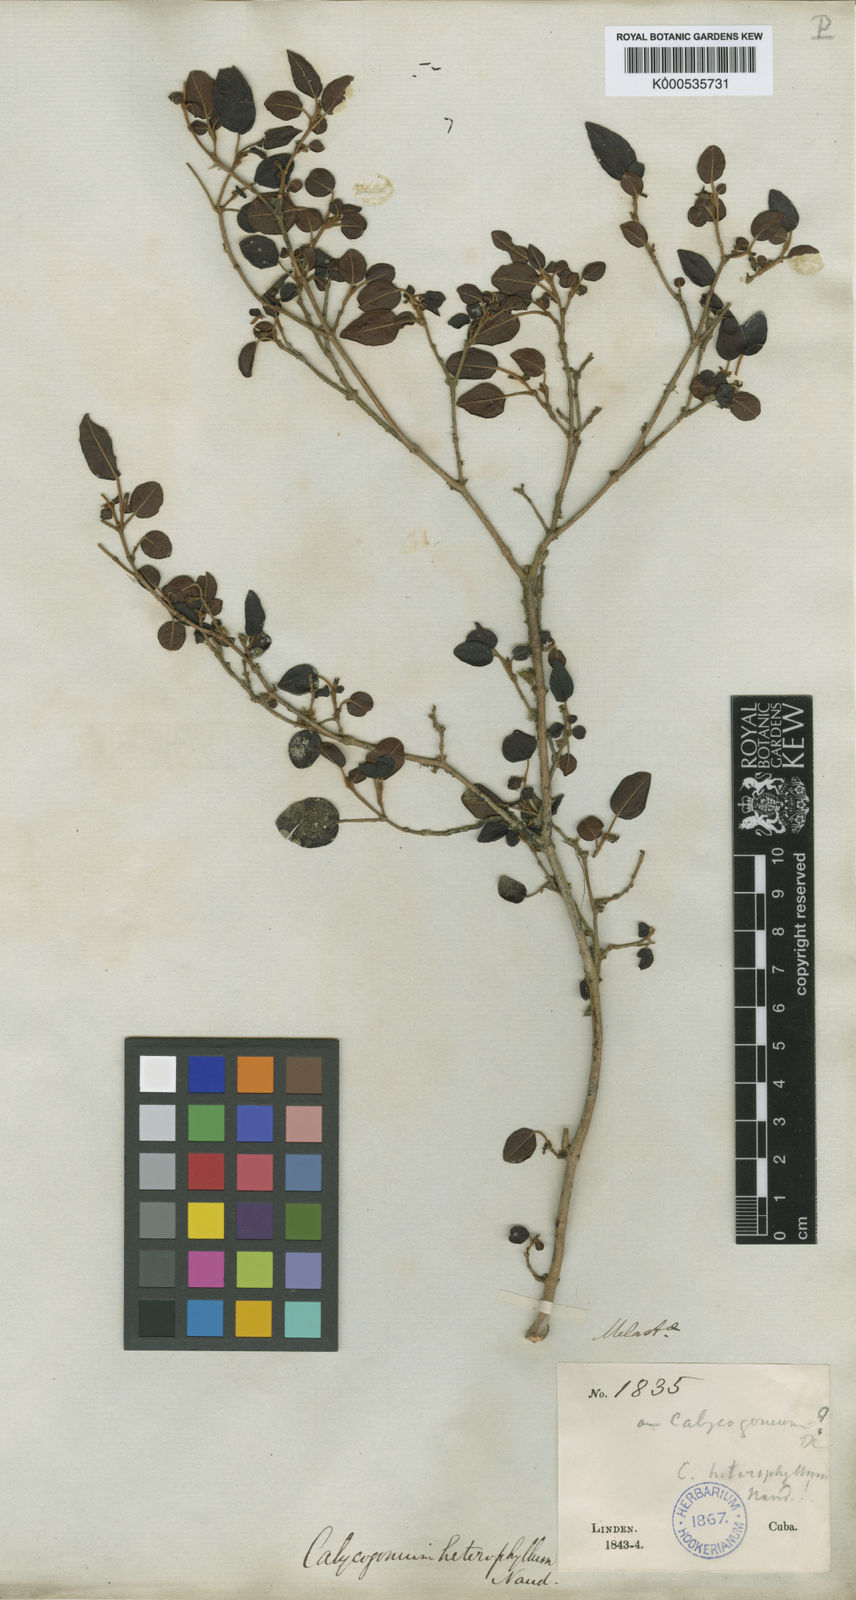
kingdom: Plantae
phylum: Tracheophyta
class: Magnoliopsida
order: Myrtales
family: Melastomataceae
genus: Miconia
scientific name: Miconia heterophylla
